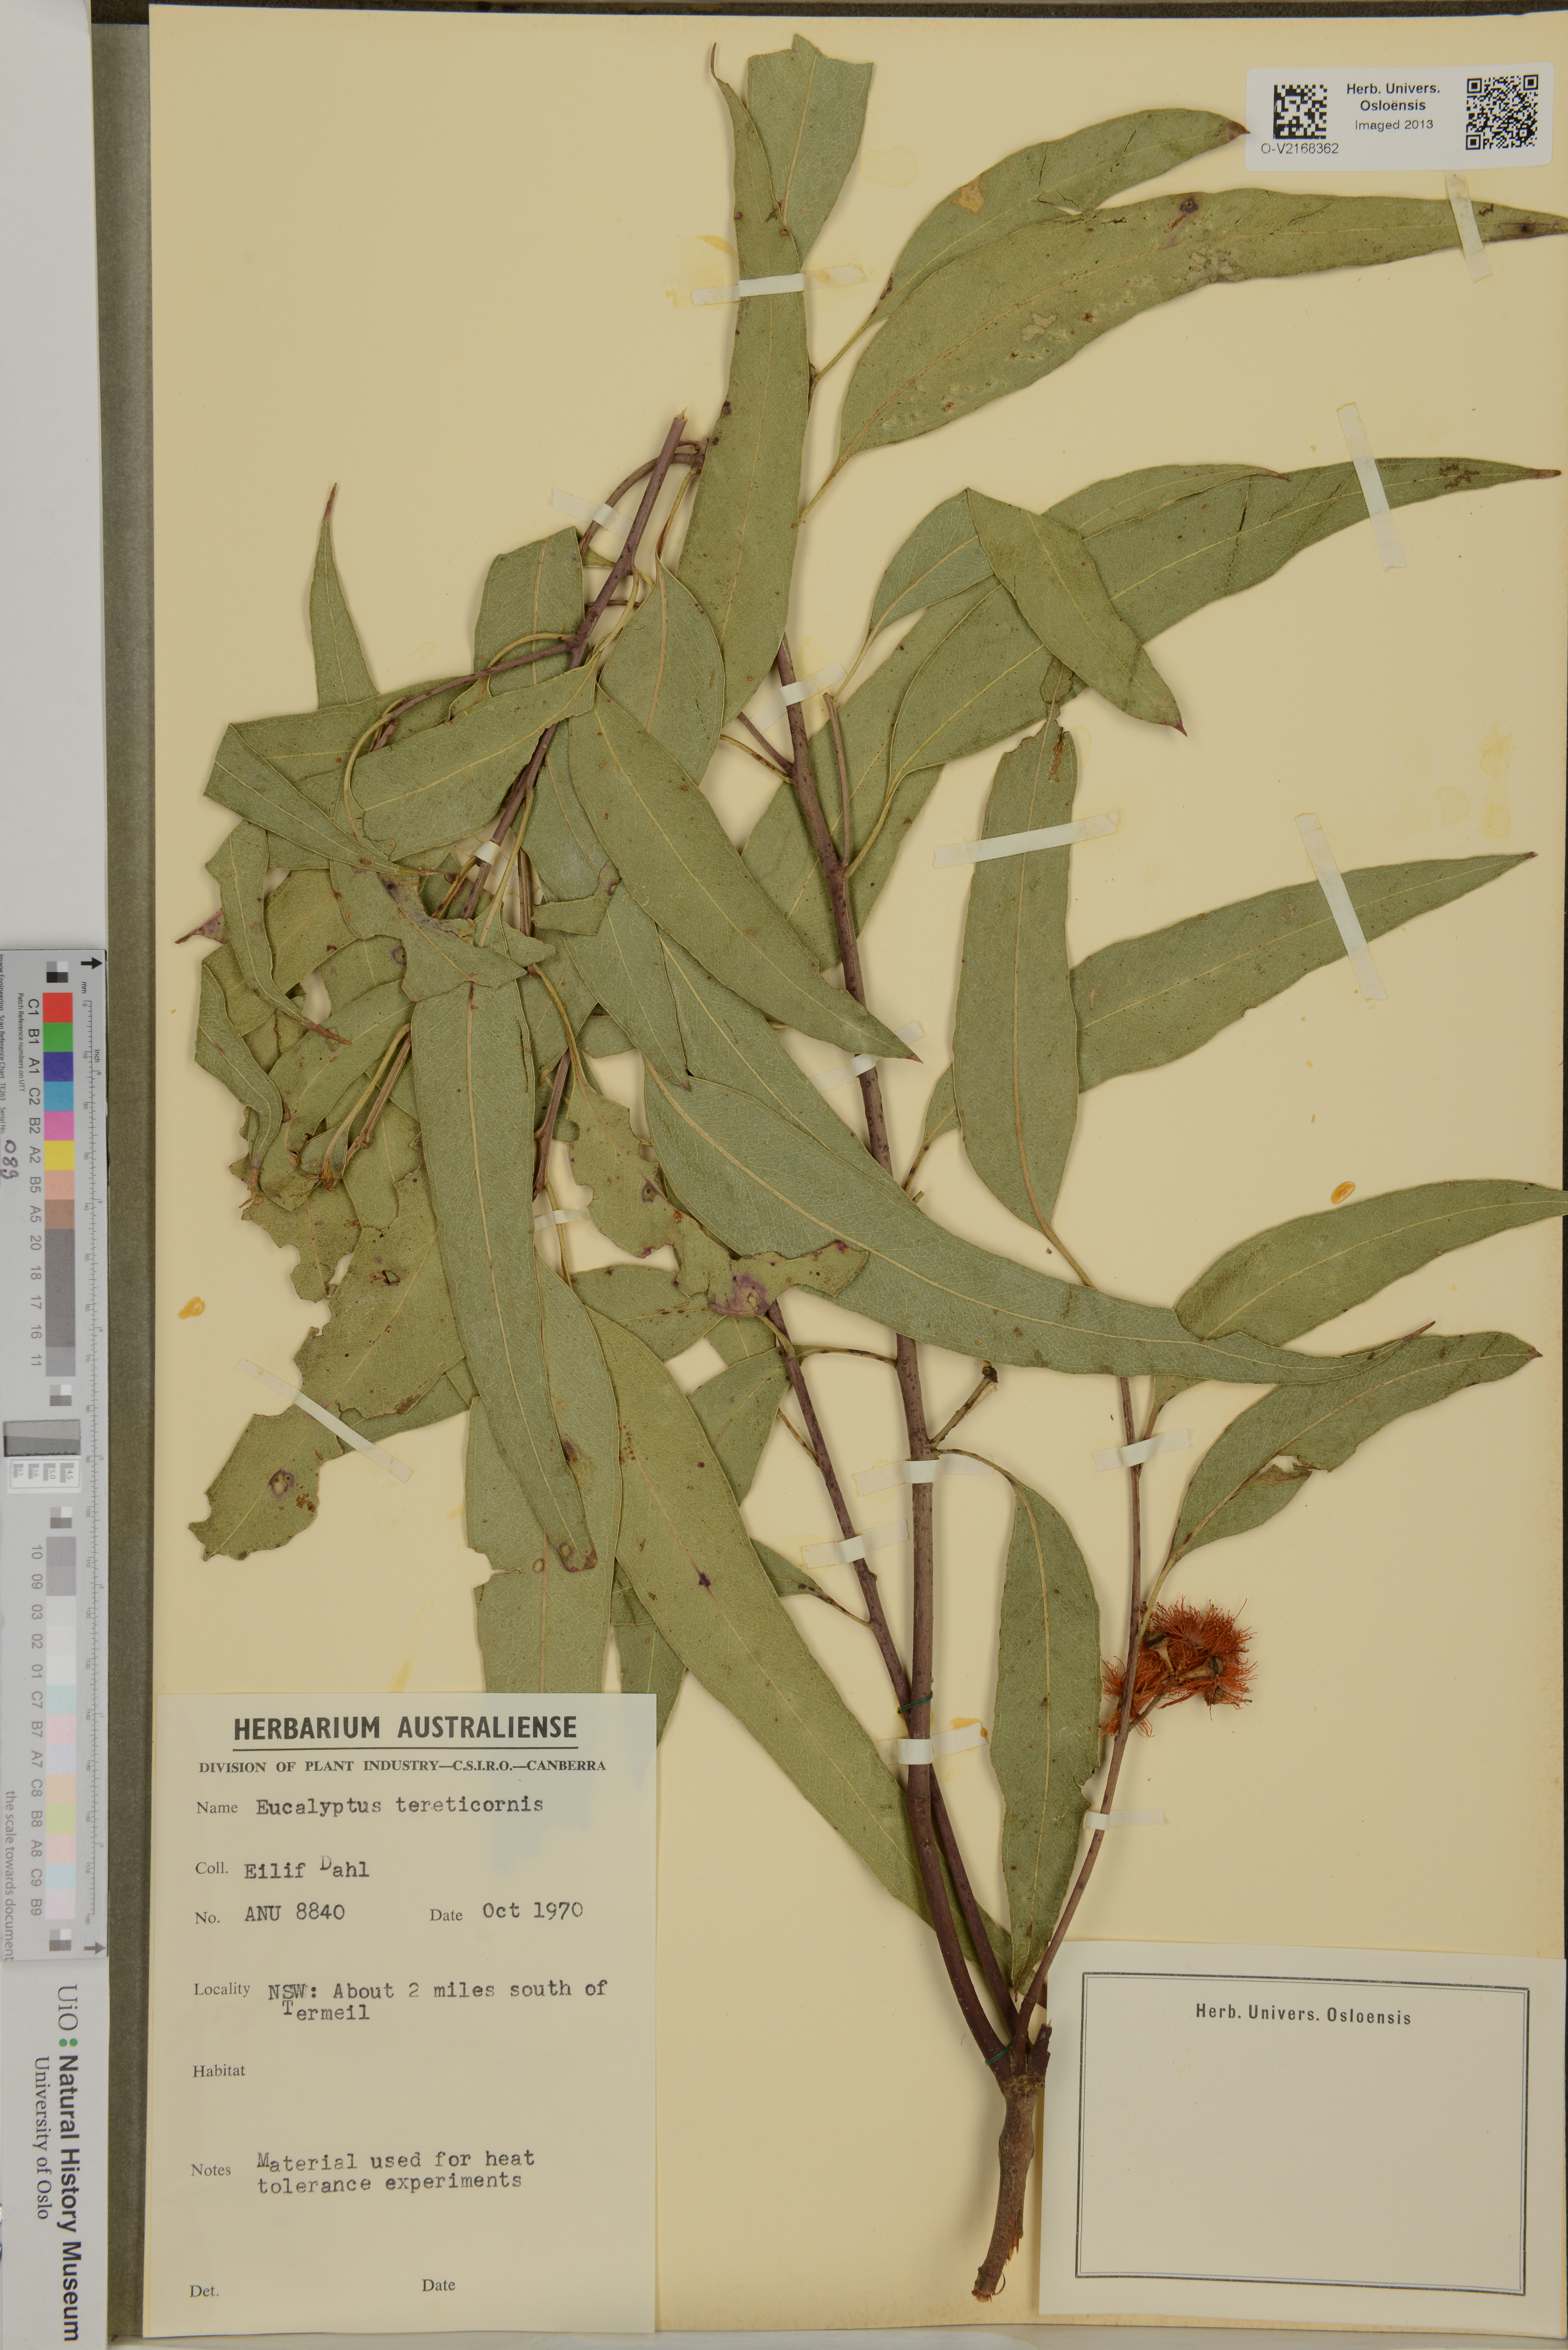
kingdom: Plantae
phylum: Tracheophyta
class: Magnoliopsida
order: Myrtales
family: Myrtaceae
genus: Eucalyptus
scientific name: Eucalyptus tereticornis
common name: Forest redgum
